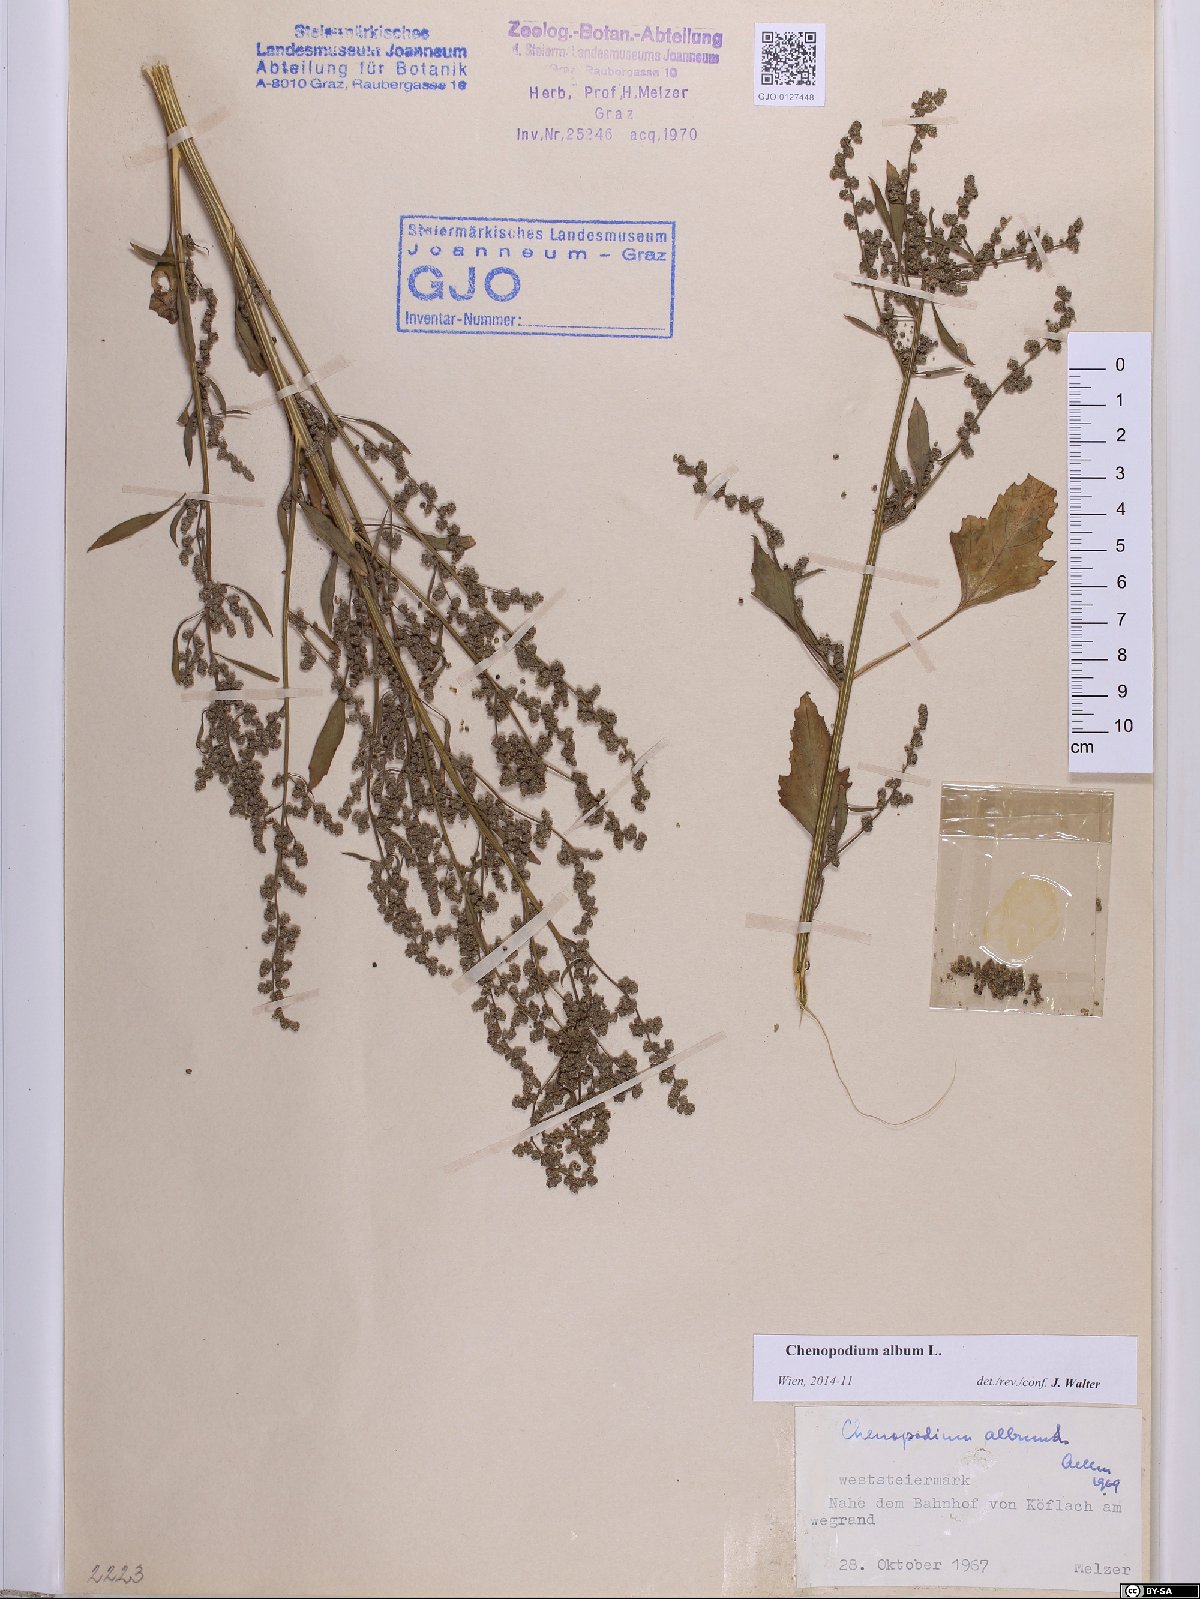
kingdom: Plantae
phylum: Tracheophyta
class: Magnoliopsida
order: Caryophyllales
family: Amaranthaceae
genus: Chenopodium
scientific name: Chenopodium album
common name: Fat-hen
